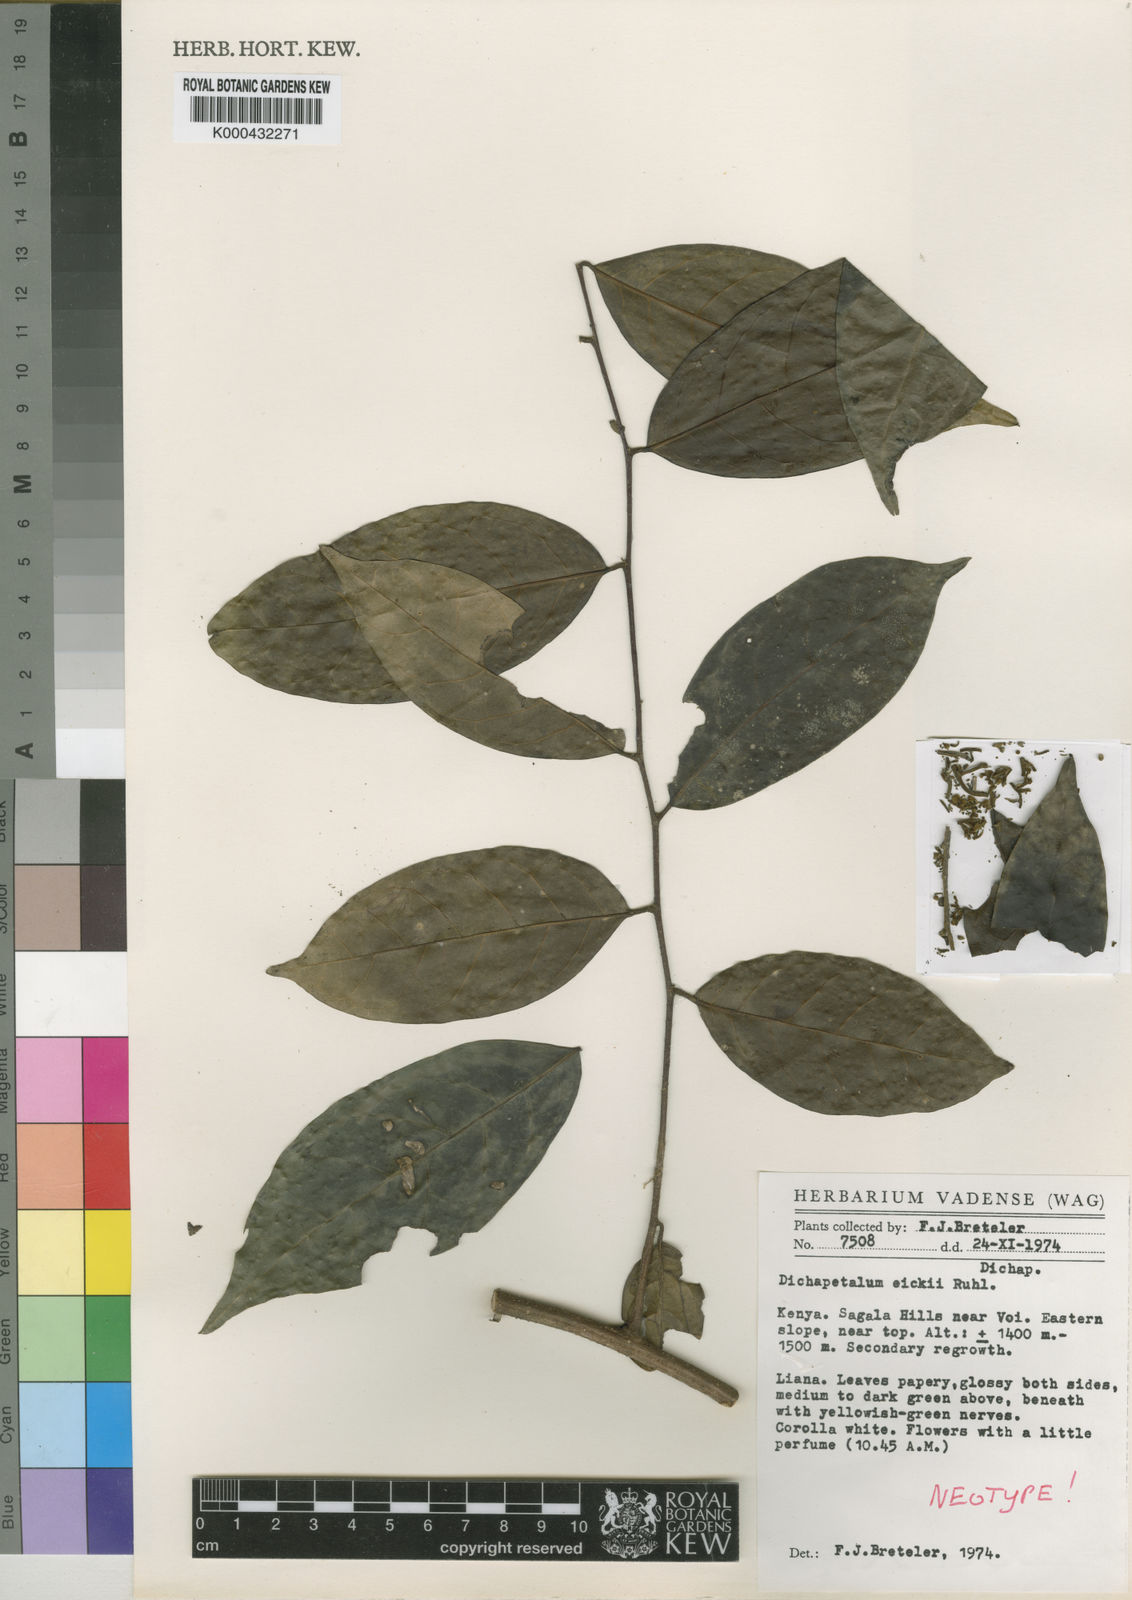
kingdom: Plantae
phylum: Tracheophyta
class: Magnoliopsida
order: Malpighiales
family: Dichapetalaceae
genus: Dichapetalum
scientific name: Dichapetalum eickii
